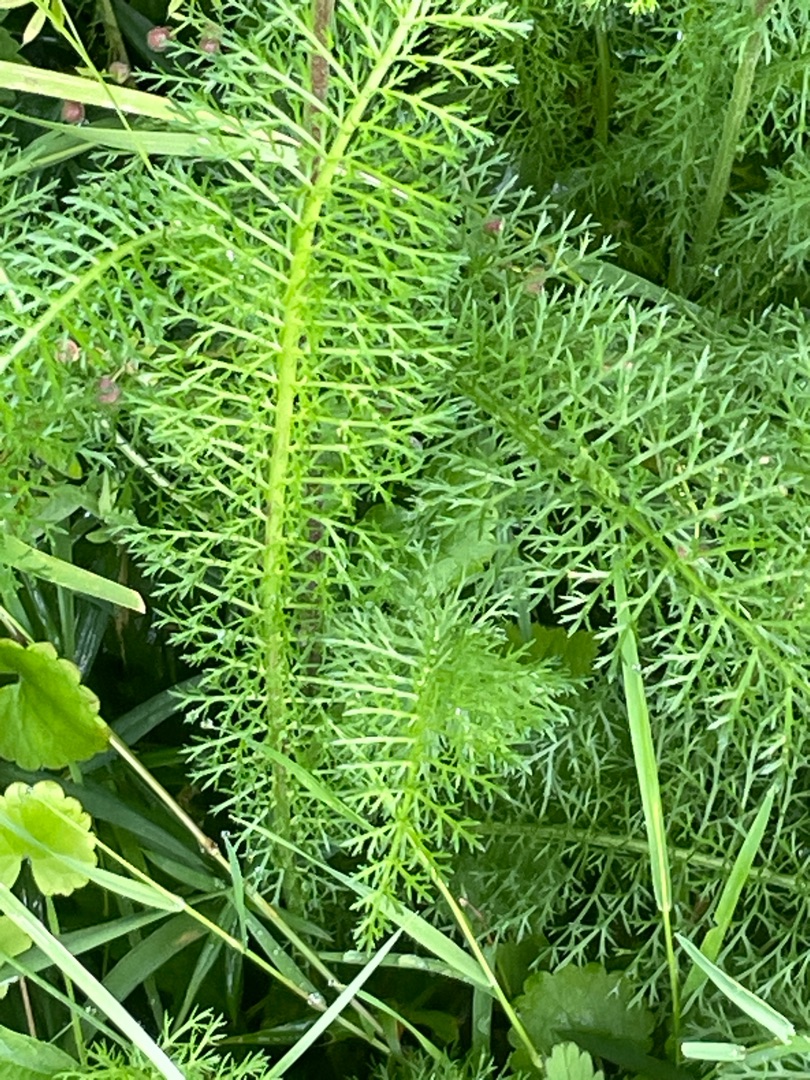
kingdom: Plantae
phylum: Tracheophyta
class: Magnoliopsida
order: Asterales
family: Asteraceae
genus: Achillea
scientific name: Achillea millefolium
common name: Almindelig røllike
